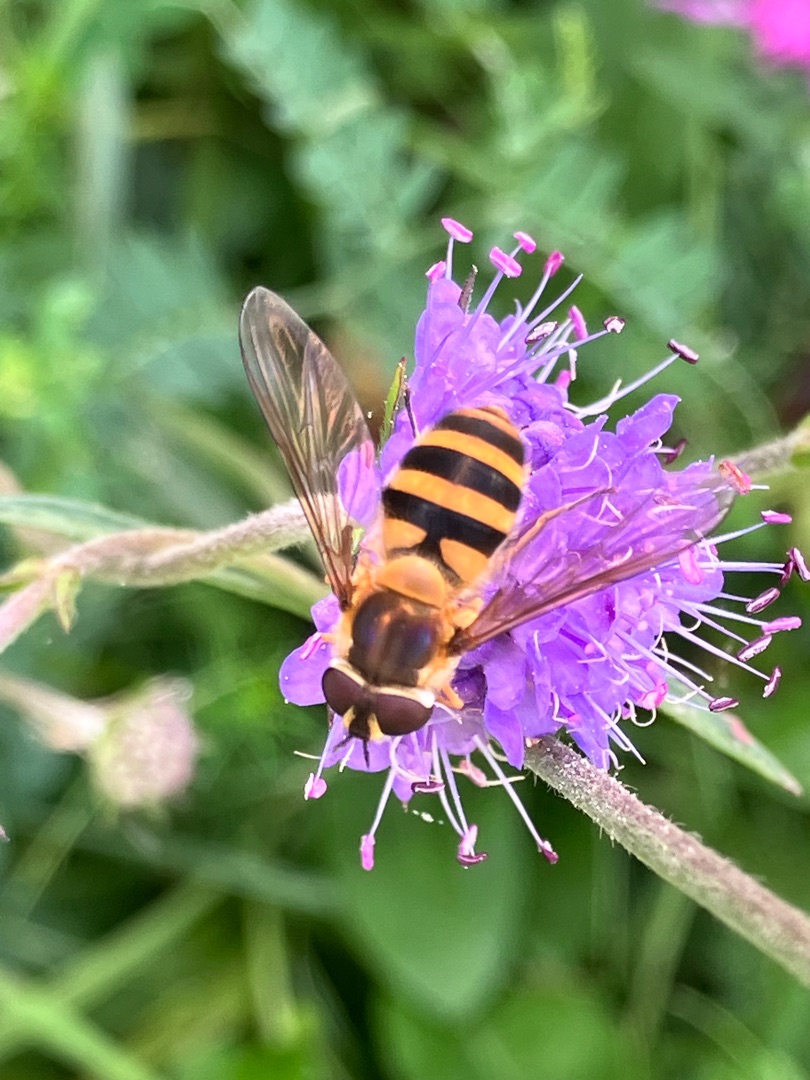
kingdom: Animalia
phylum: Arthropoda
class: Insecta
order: Diptera
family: Syrphidae
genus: Epistrophe
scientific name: Epistrophe grossulariae
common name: Stikkelsbær-glanssvirreflue
